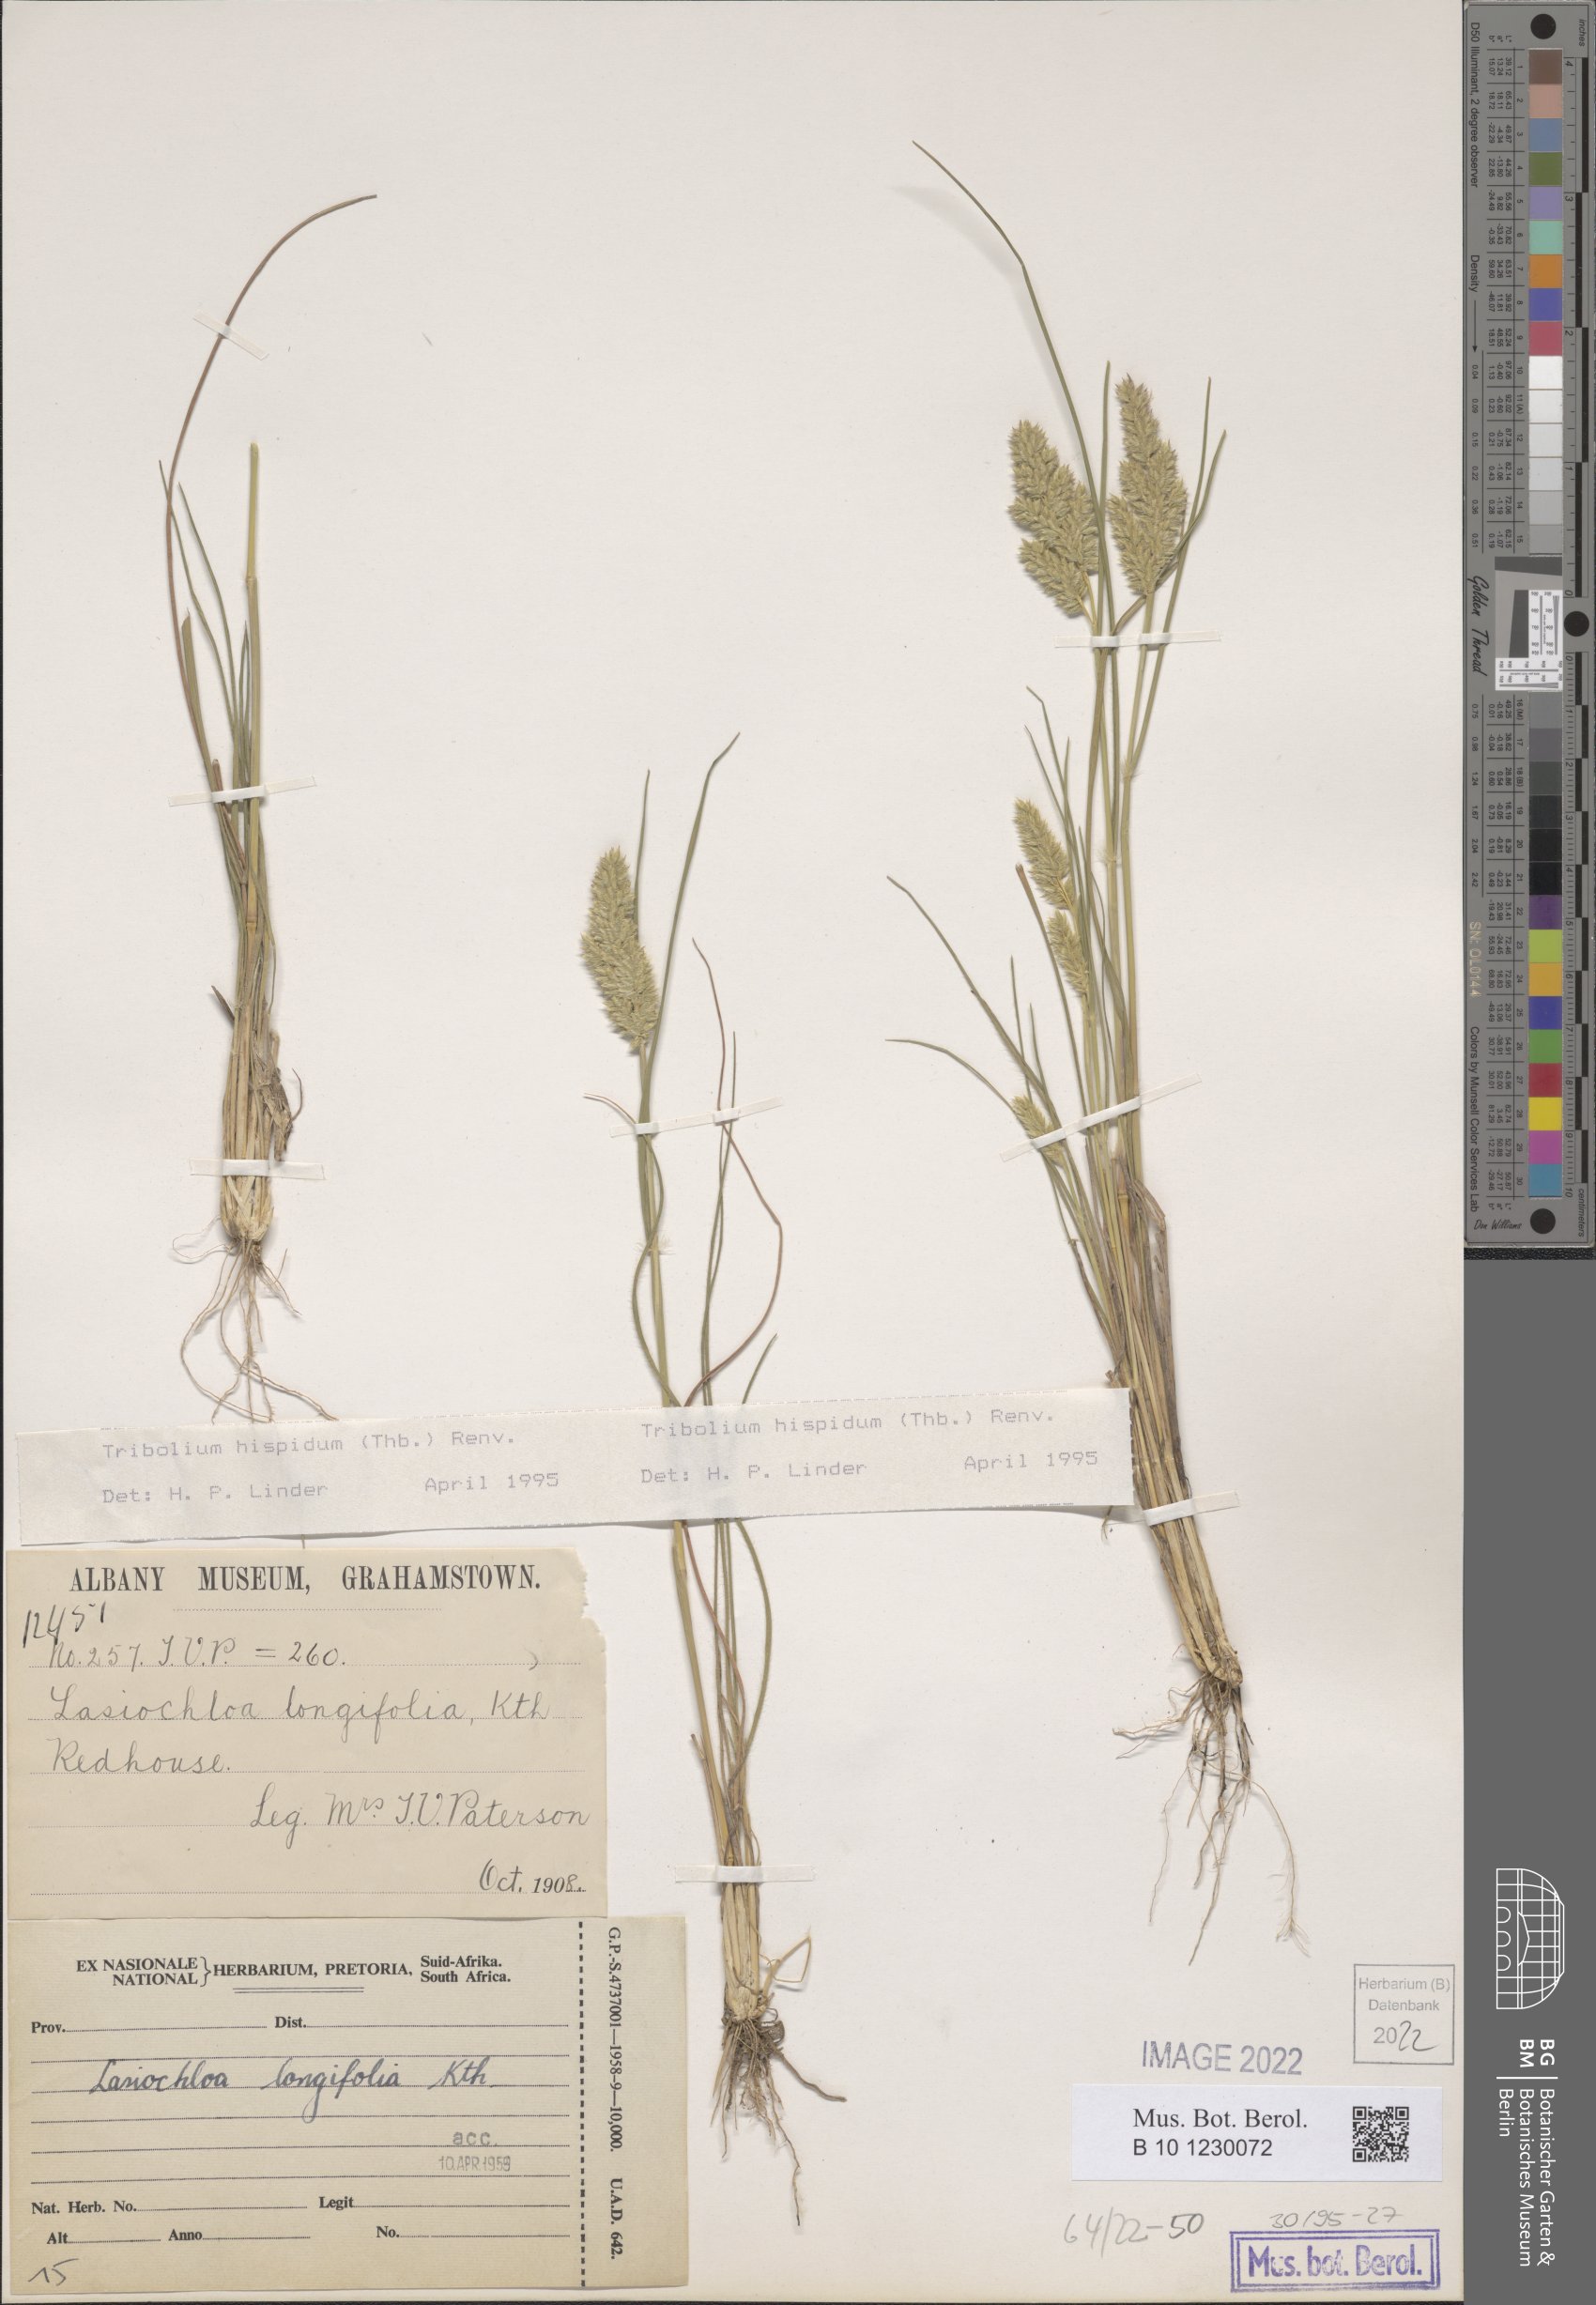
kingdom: Plantae
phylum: Tracheophyta
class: Liliopsida
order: Poales
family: Poaceae
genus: Tribolium
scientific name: Tribolium hispidum
